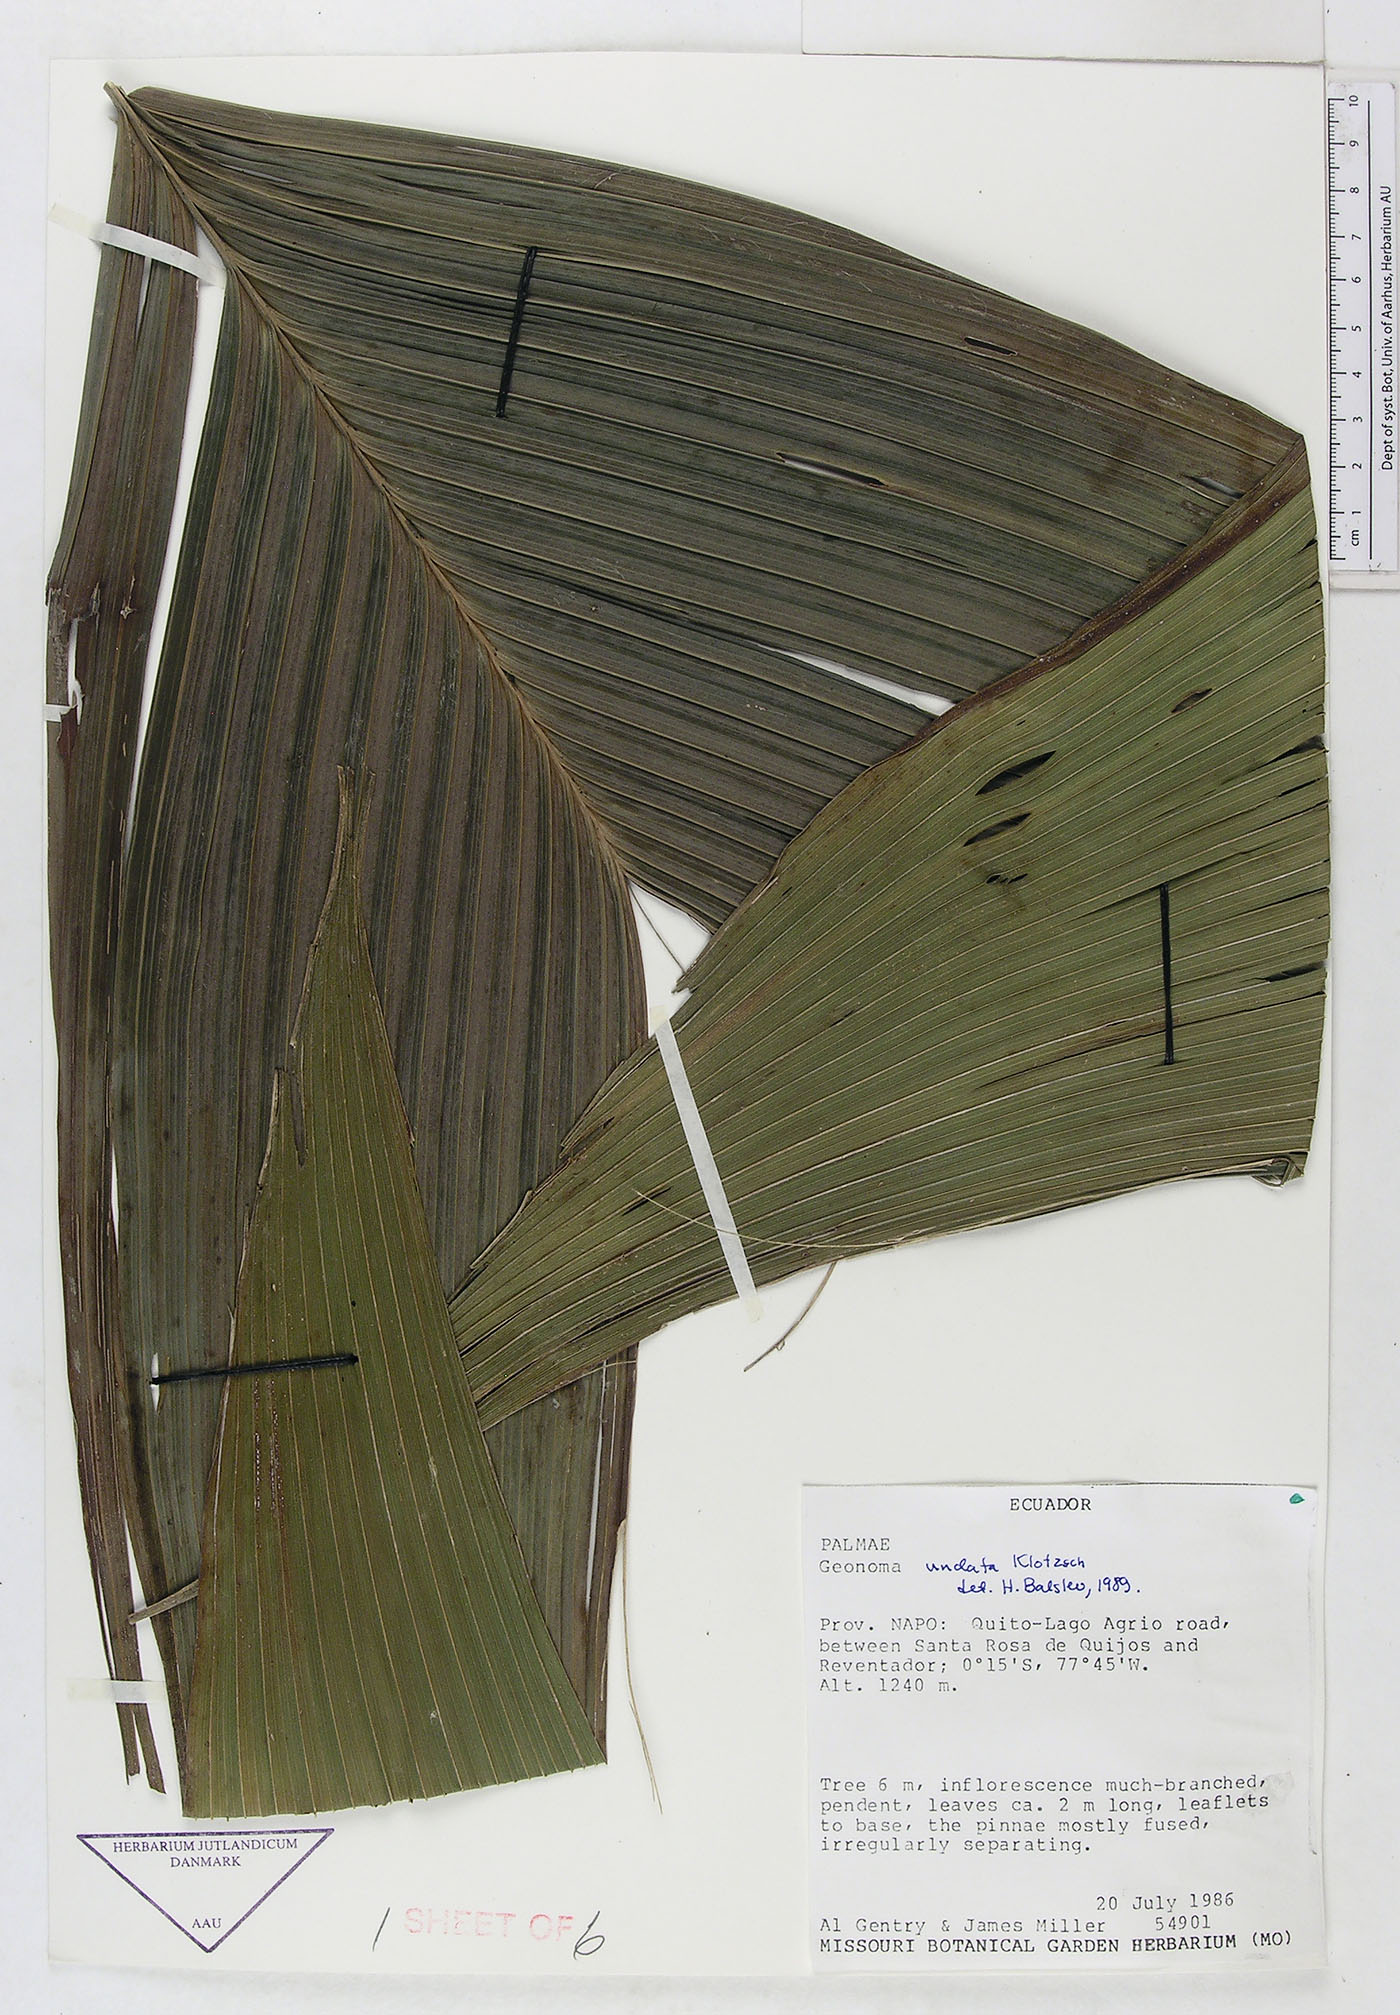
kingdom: Plantae
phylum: Tracheophyta
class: Liliopsida
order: Arecales
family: Arecaceae
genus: Geonoma
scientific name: Geonoma undata
